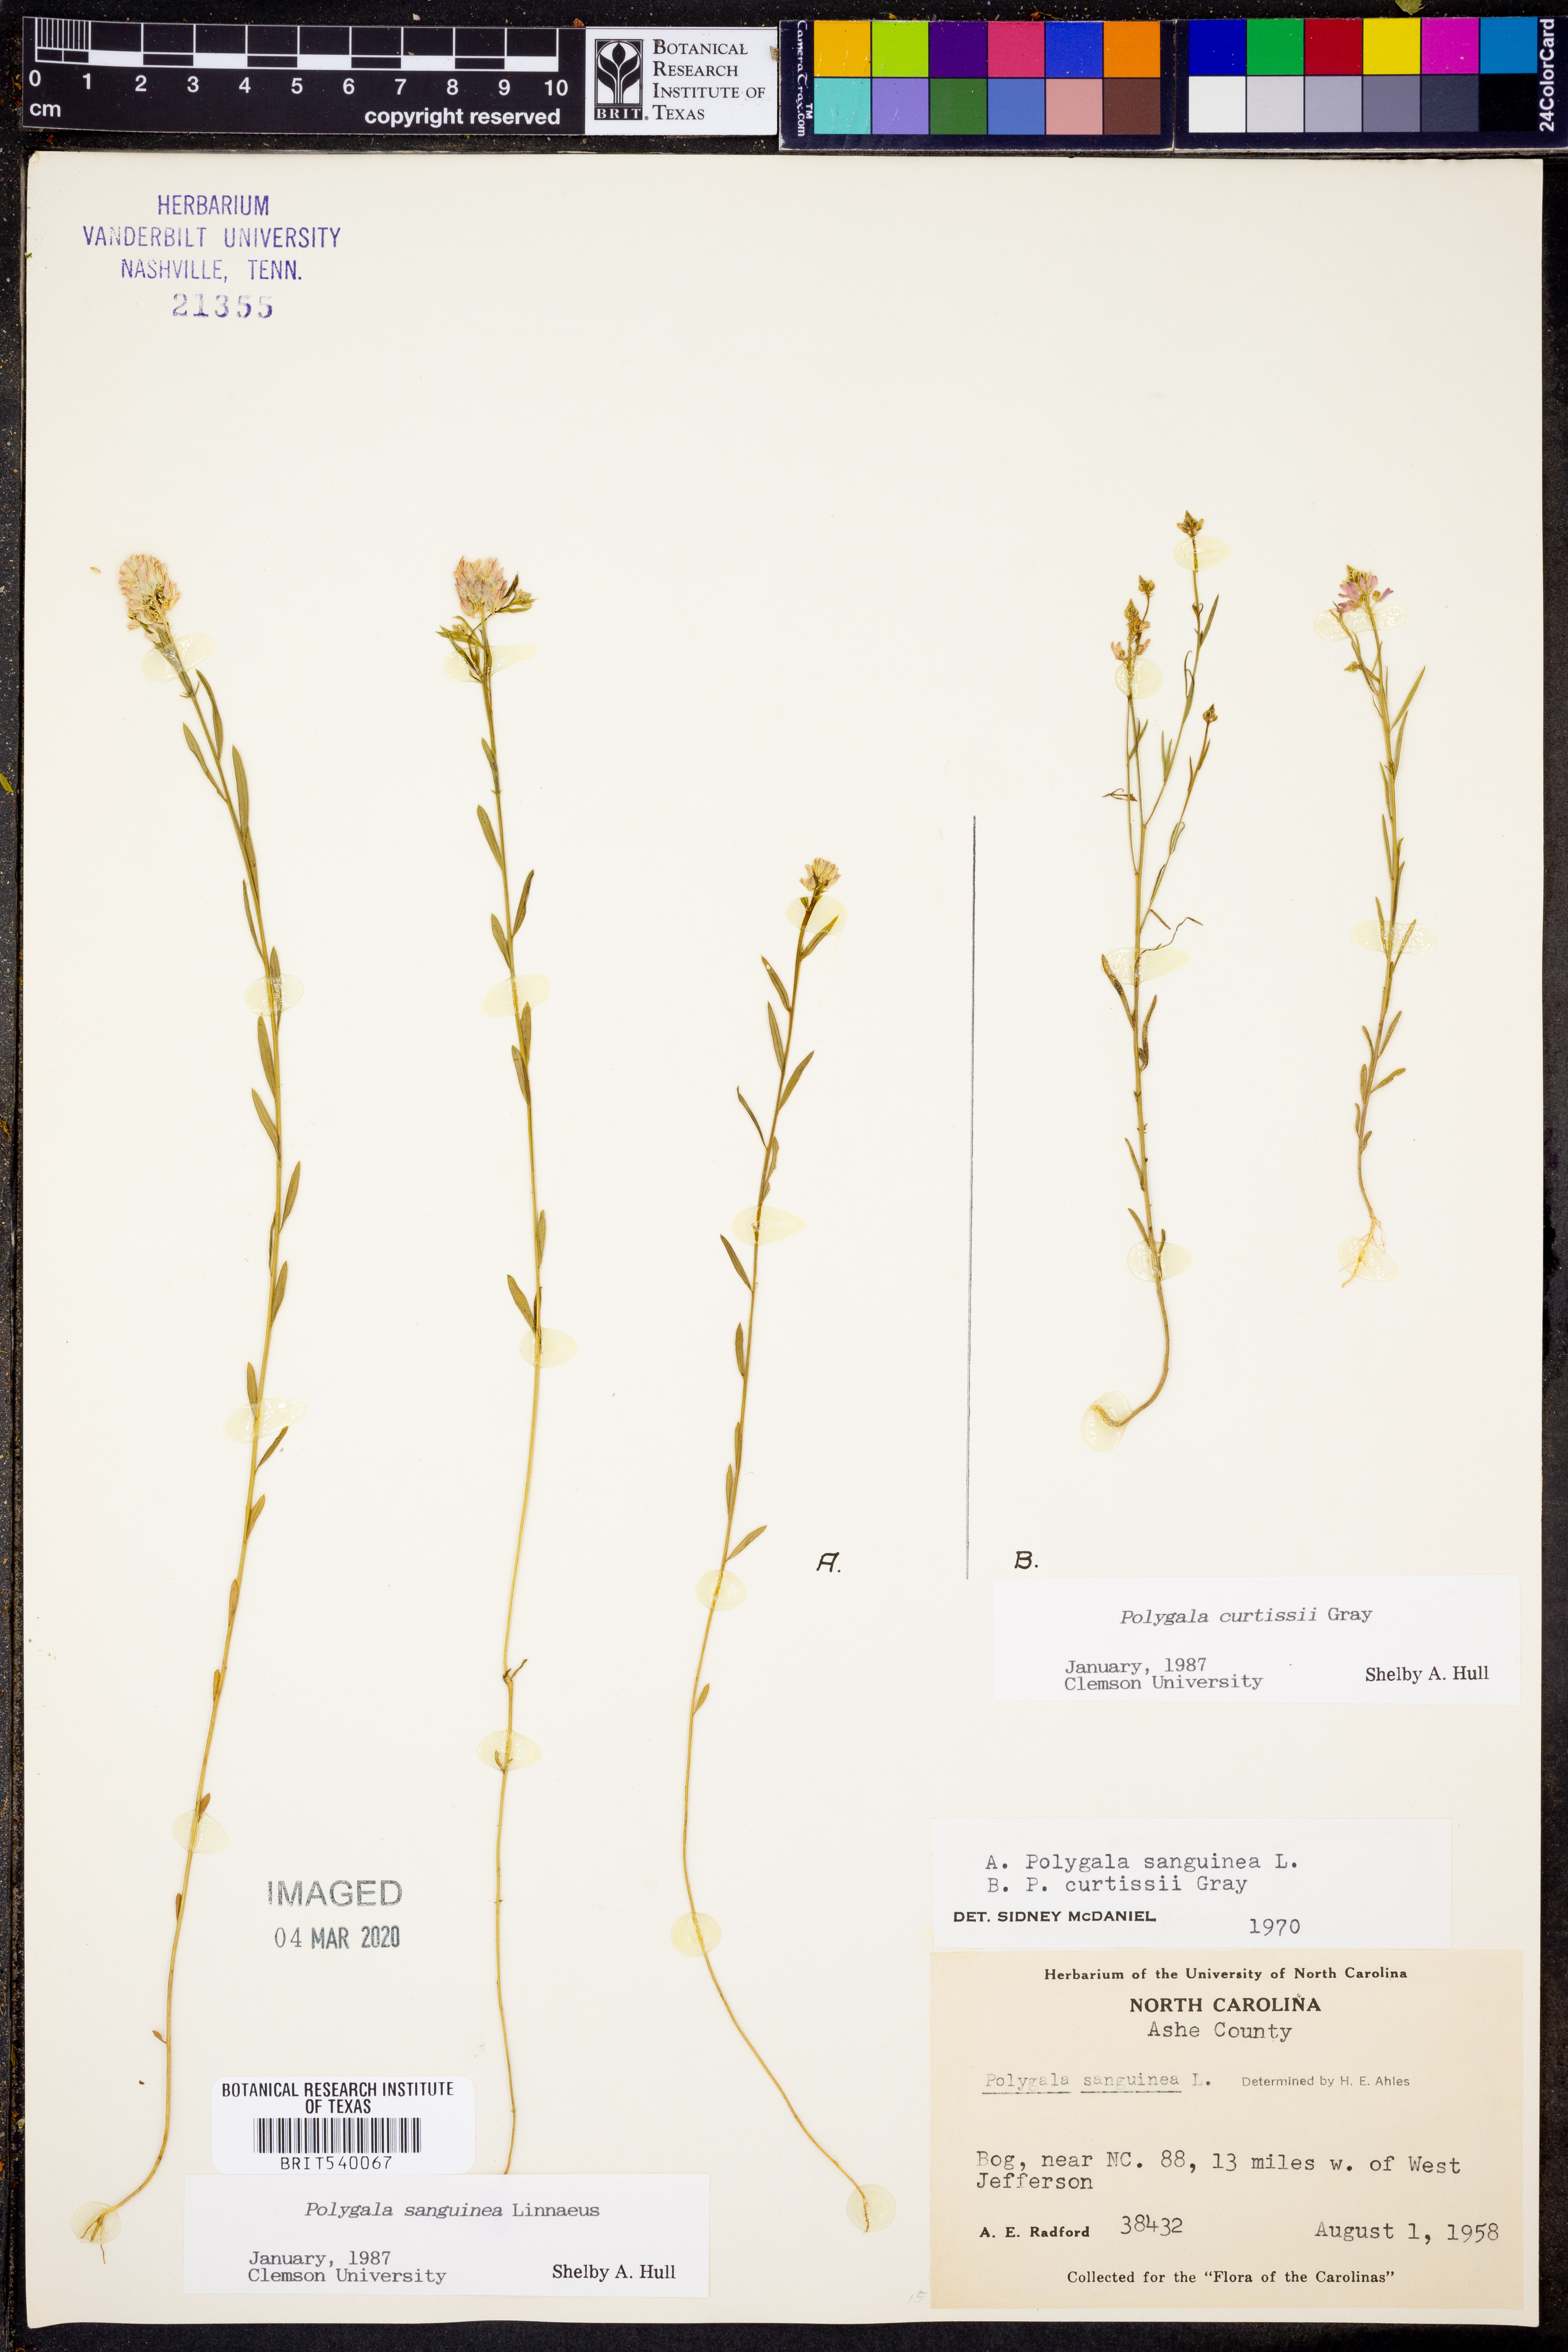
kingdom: Plantae
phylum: Tracheophyta
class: Magnoliopsida
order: Fabales
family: Polygalaceae
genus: Polygala
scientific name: Polygala sanguinea
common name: Blood milkwort
